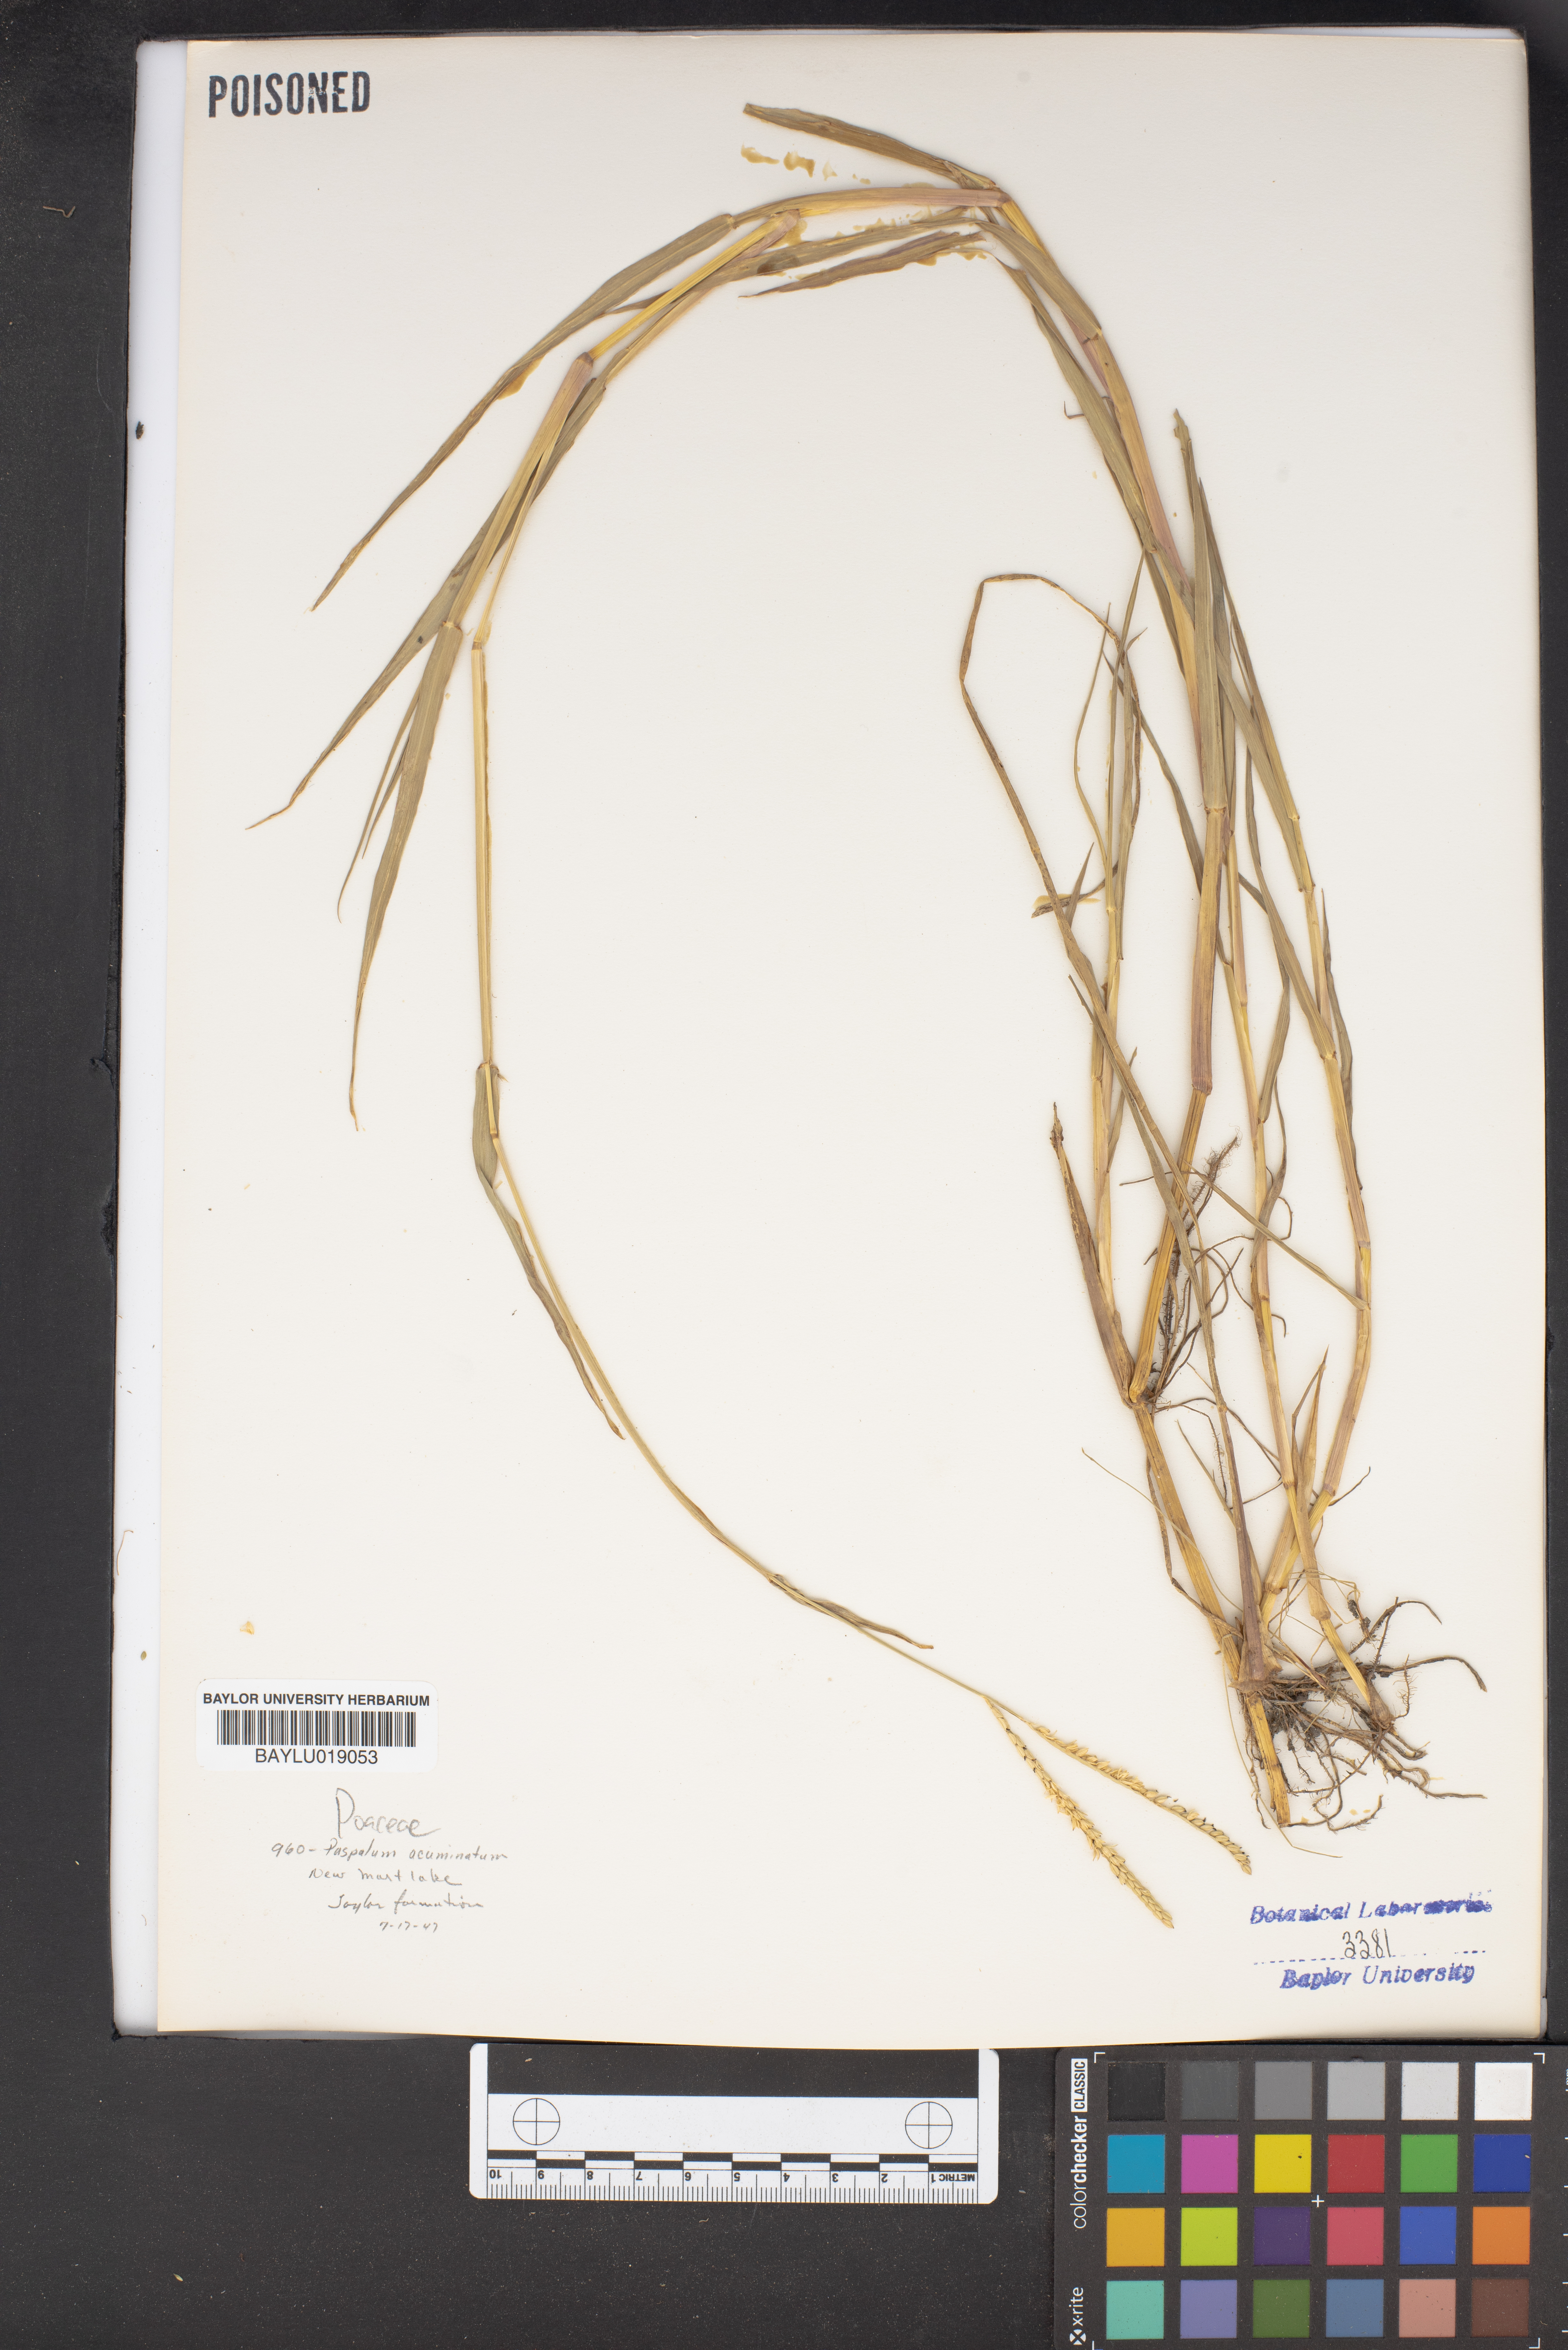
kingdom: Plantae
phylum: Tracheophyta
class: Liliopsida
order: Poales
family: Poaceae
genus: Paspalum
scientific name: Paspalum acuminatum
